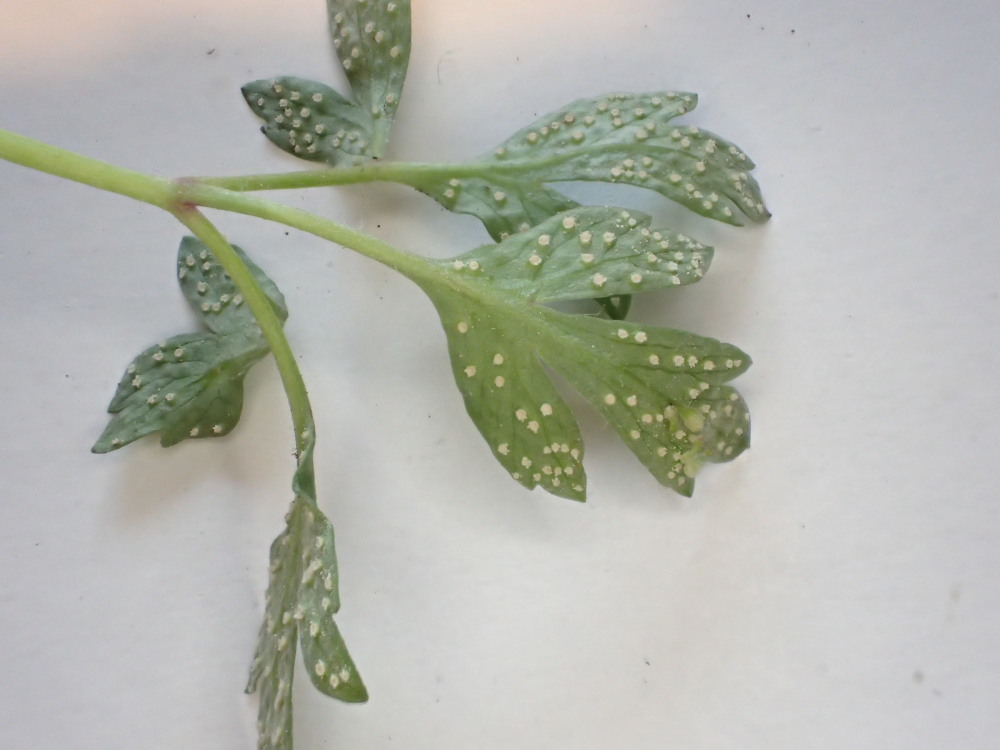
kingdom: Fungi
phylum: Basidiomycota
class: Pucciniomycetes
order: Pucciniales
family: Ochropsoraceae
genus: Ochropsora
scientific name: Ochropsora ariae
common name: anemone-okkerpletrust
